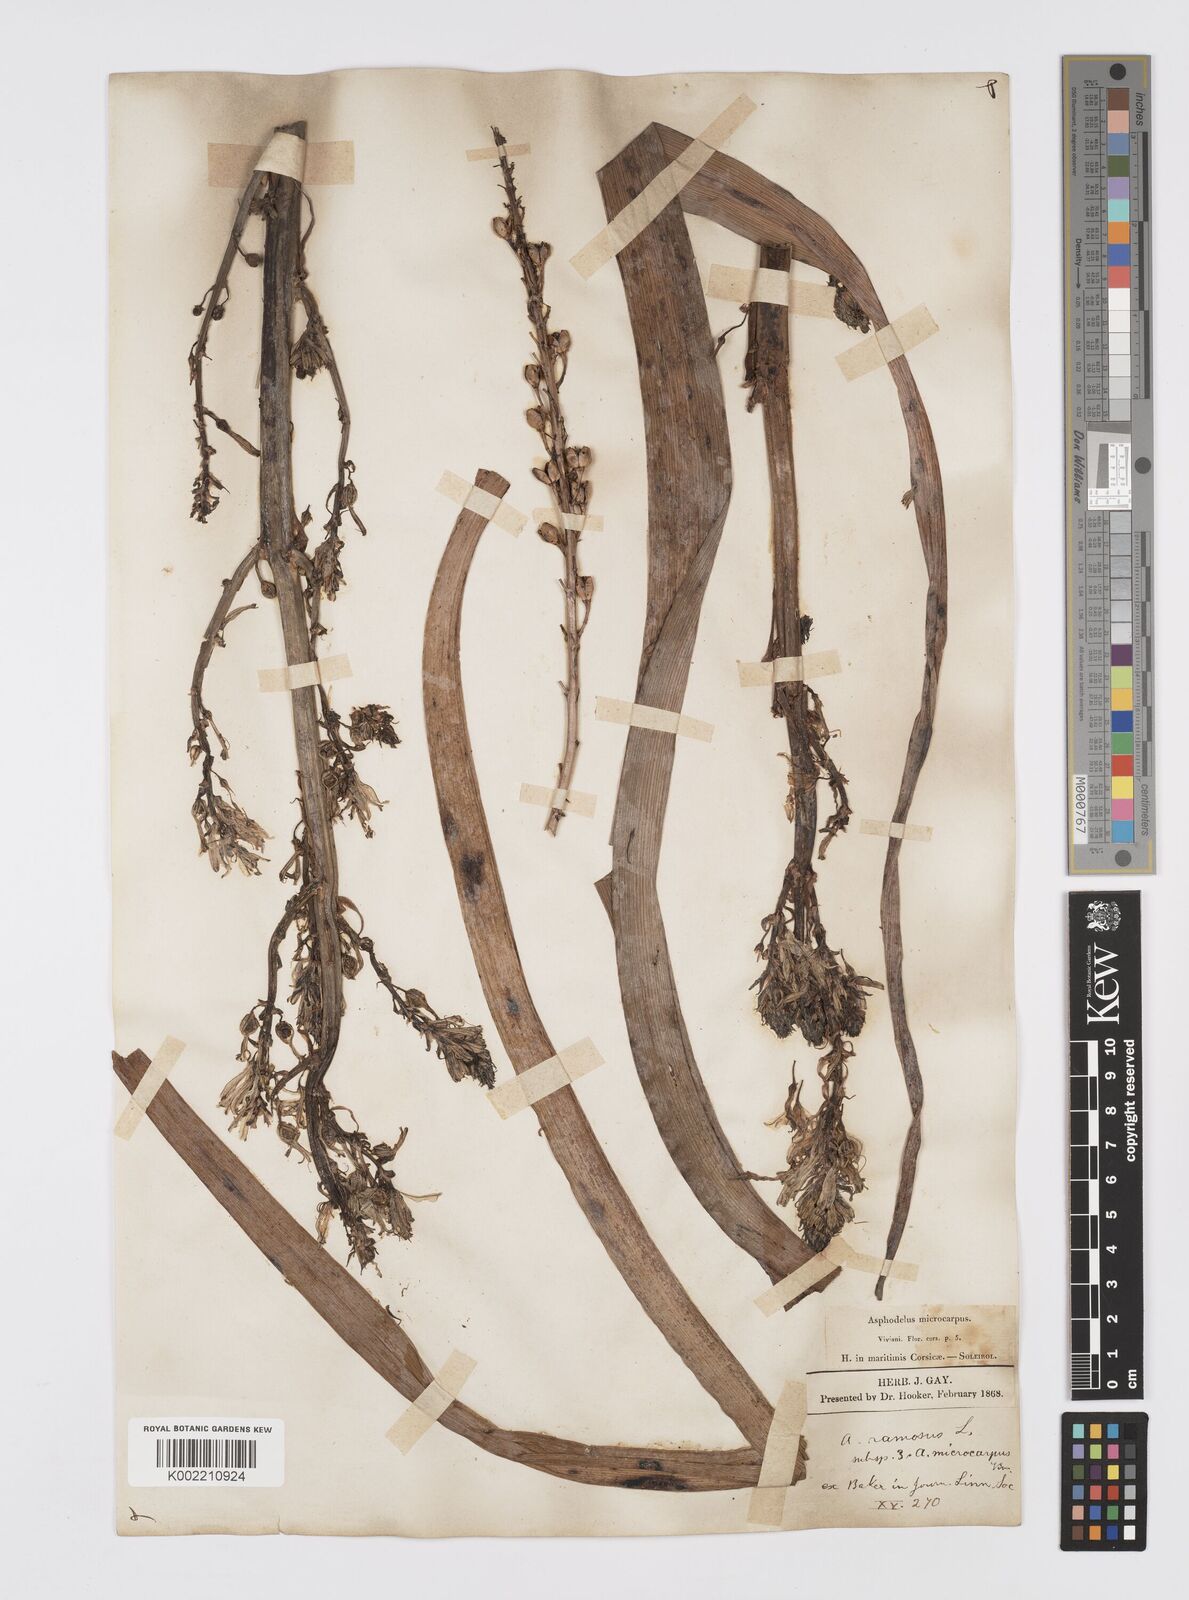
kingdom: Plantae
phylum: Tracheophyta
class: Liliopsida
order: Asparagales
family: Asphodelaceae
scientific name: Asphodelaceae
